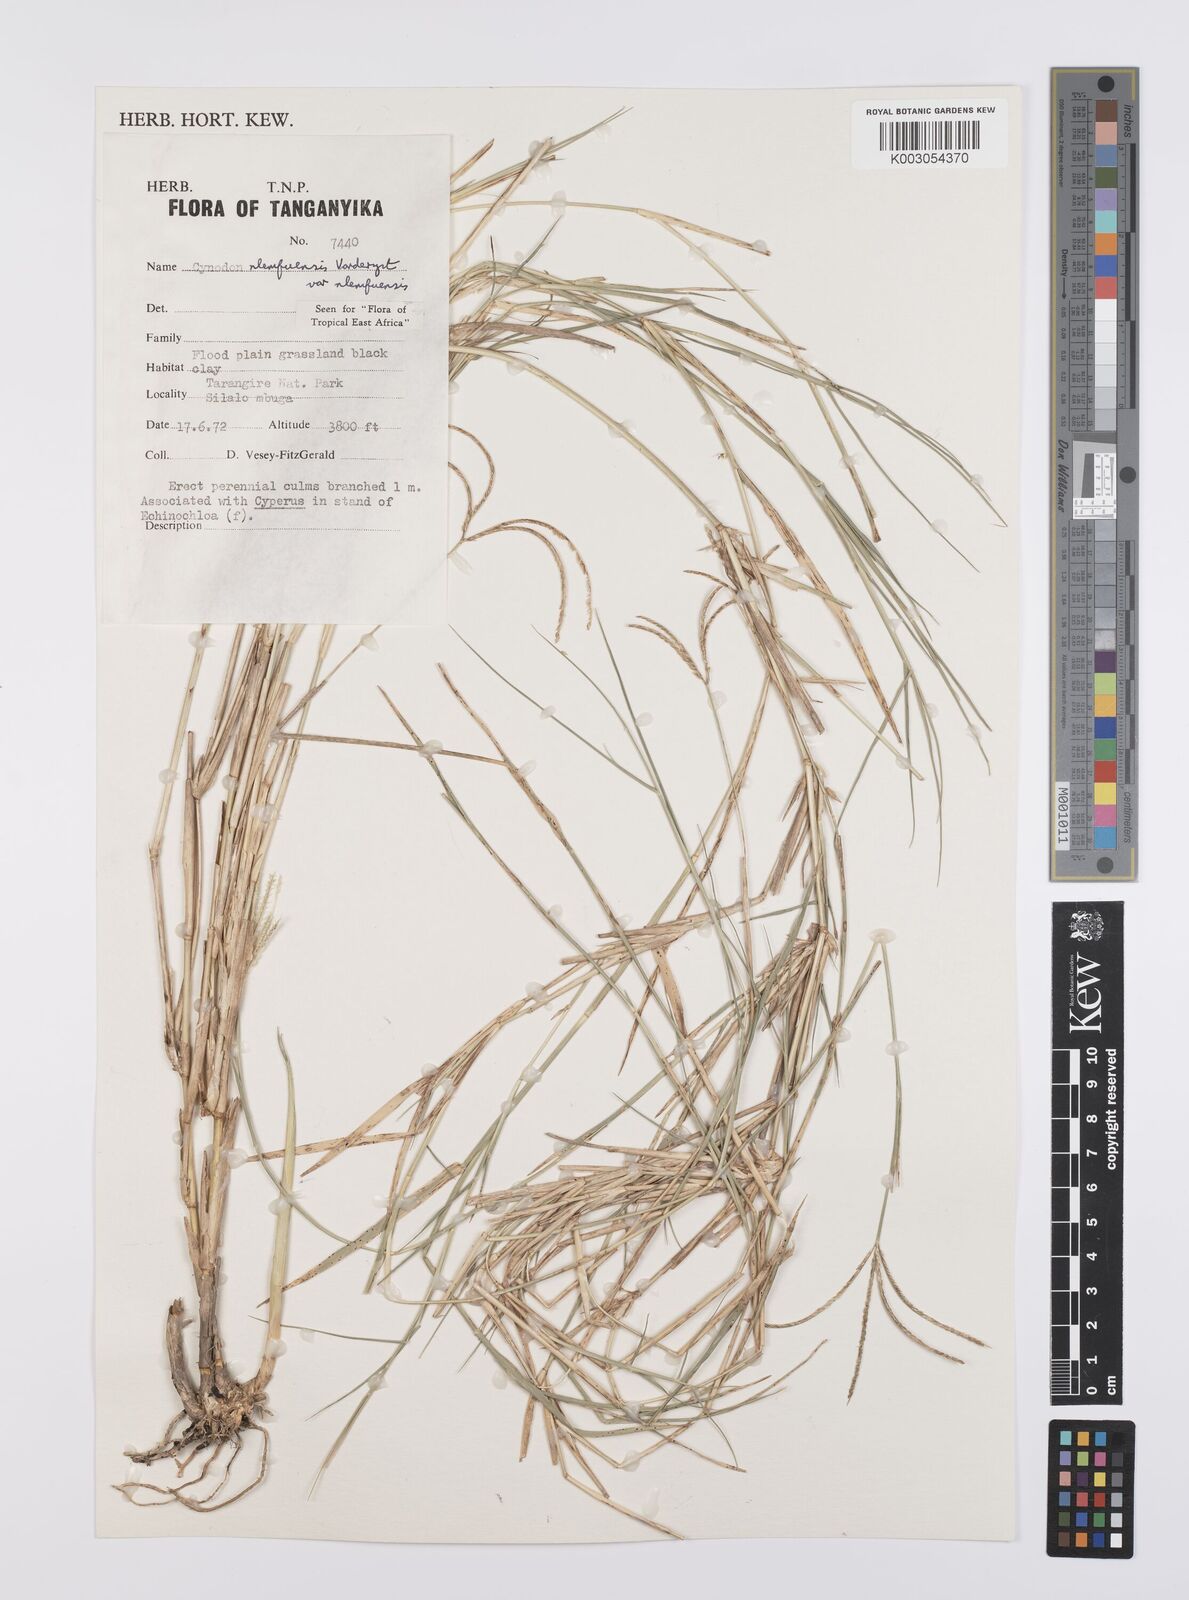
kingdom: Plantae
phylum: Tracheophyta
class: Liliopsida
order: Poales
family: Poaceae
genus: Cynodon
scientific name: Cynodon nlemfuensis
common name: African bermudagrass
